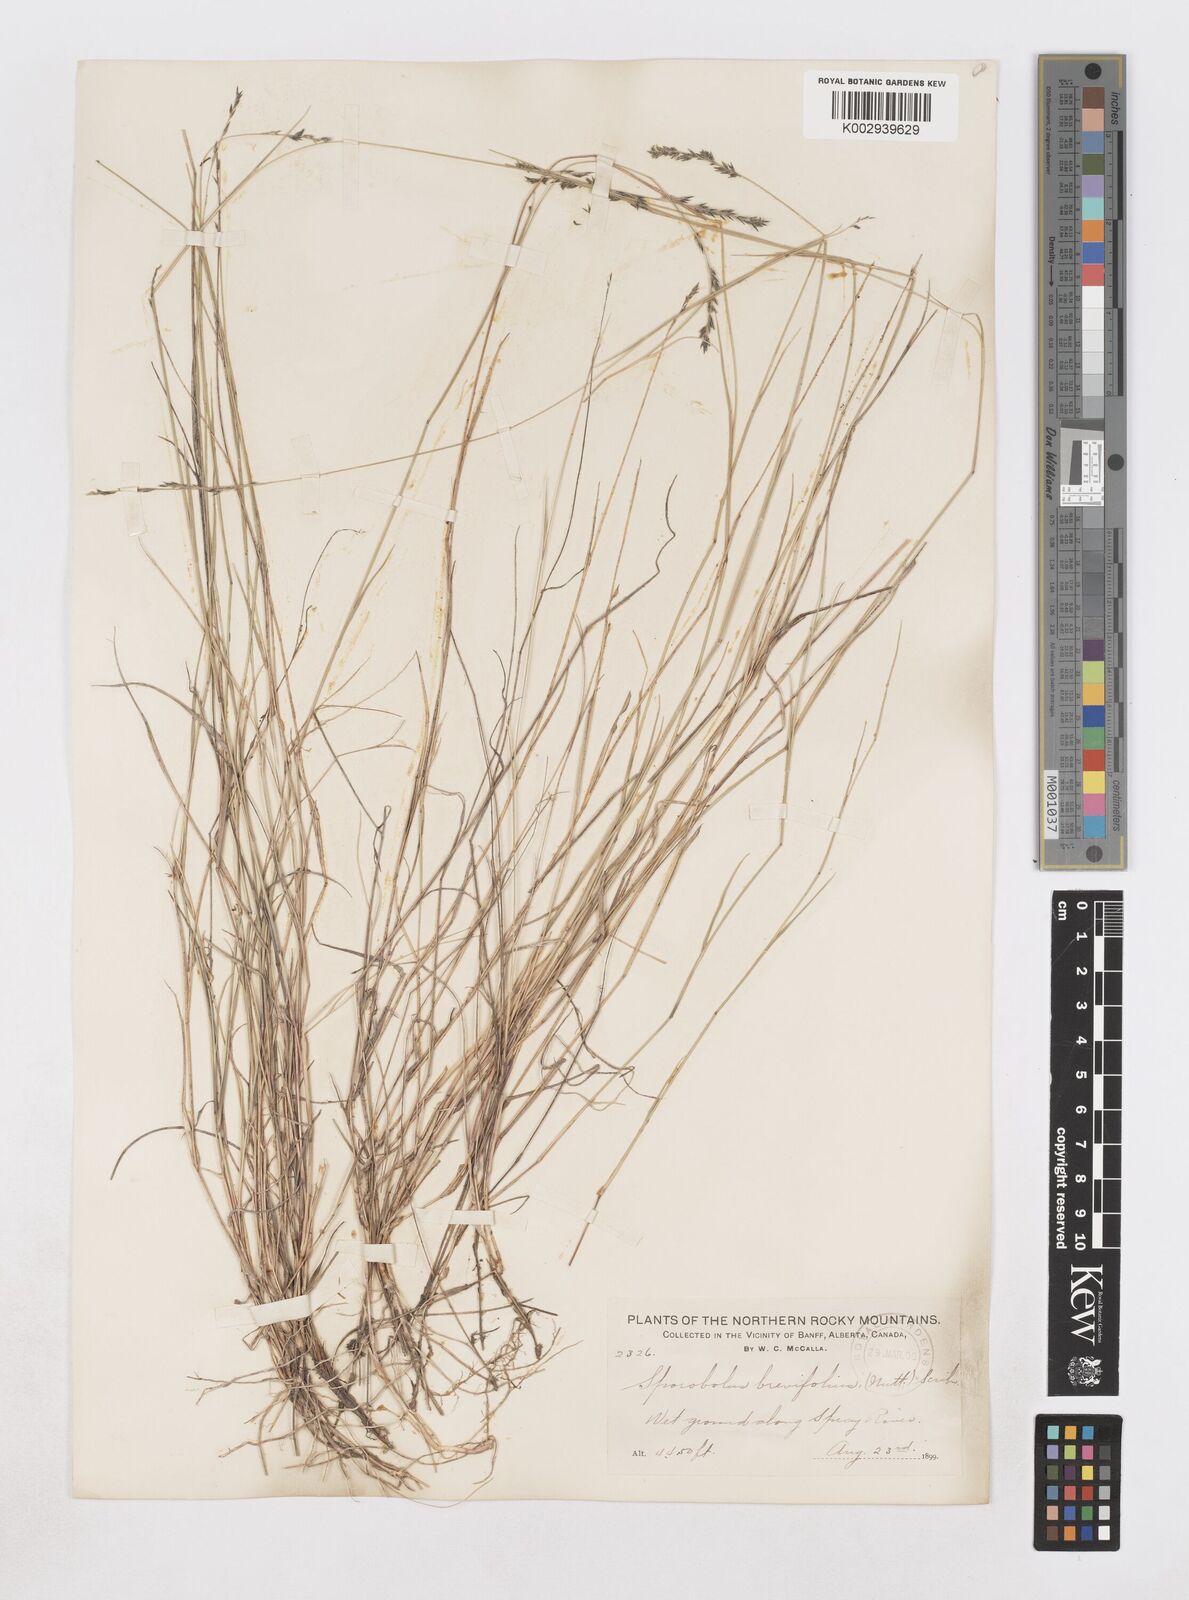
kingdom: Plantae
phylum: Tracheophyta
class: Liliopsida
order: Poales
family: Poaceae
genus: Muhlenbergia
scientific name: Muhlenbergia cuspidata
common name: Plains muhly
